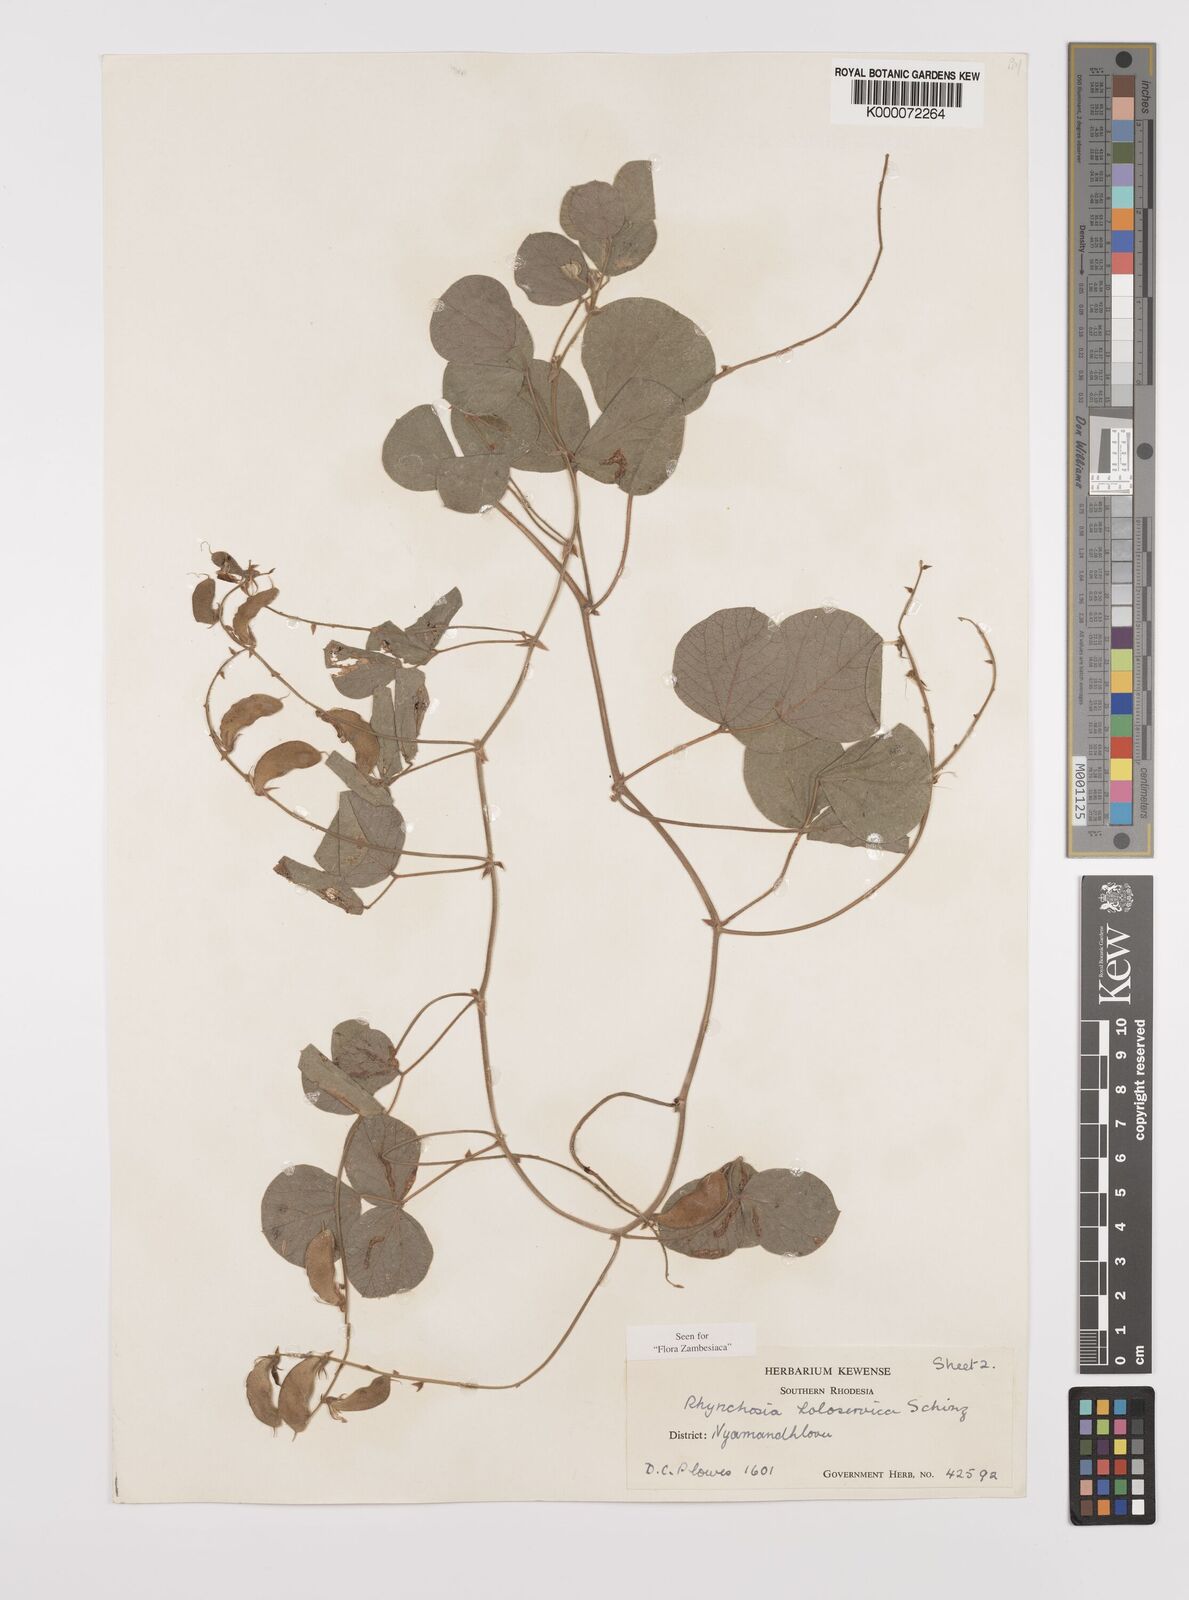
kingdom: Plantae
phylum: Tracheophyta
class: Magnoliopsida
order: Fabales
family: Fabaceae
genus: Rhynchosia
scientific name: Rhynchosia holosericea
